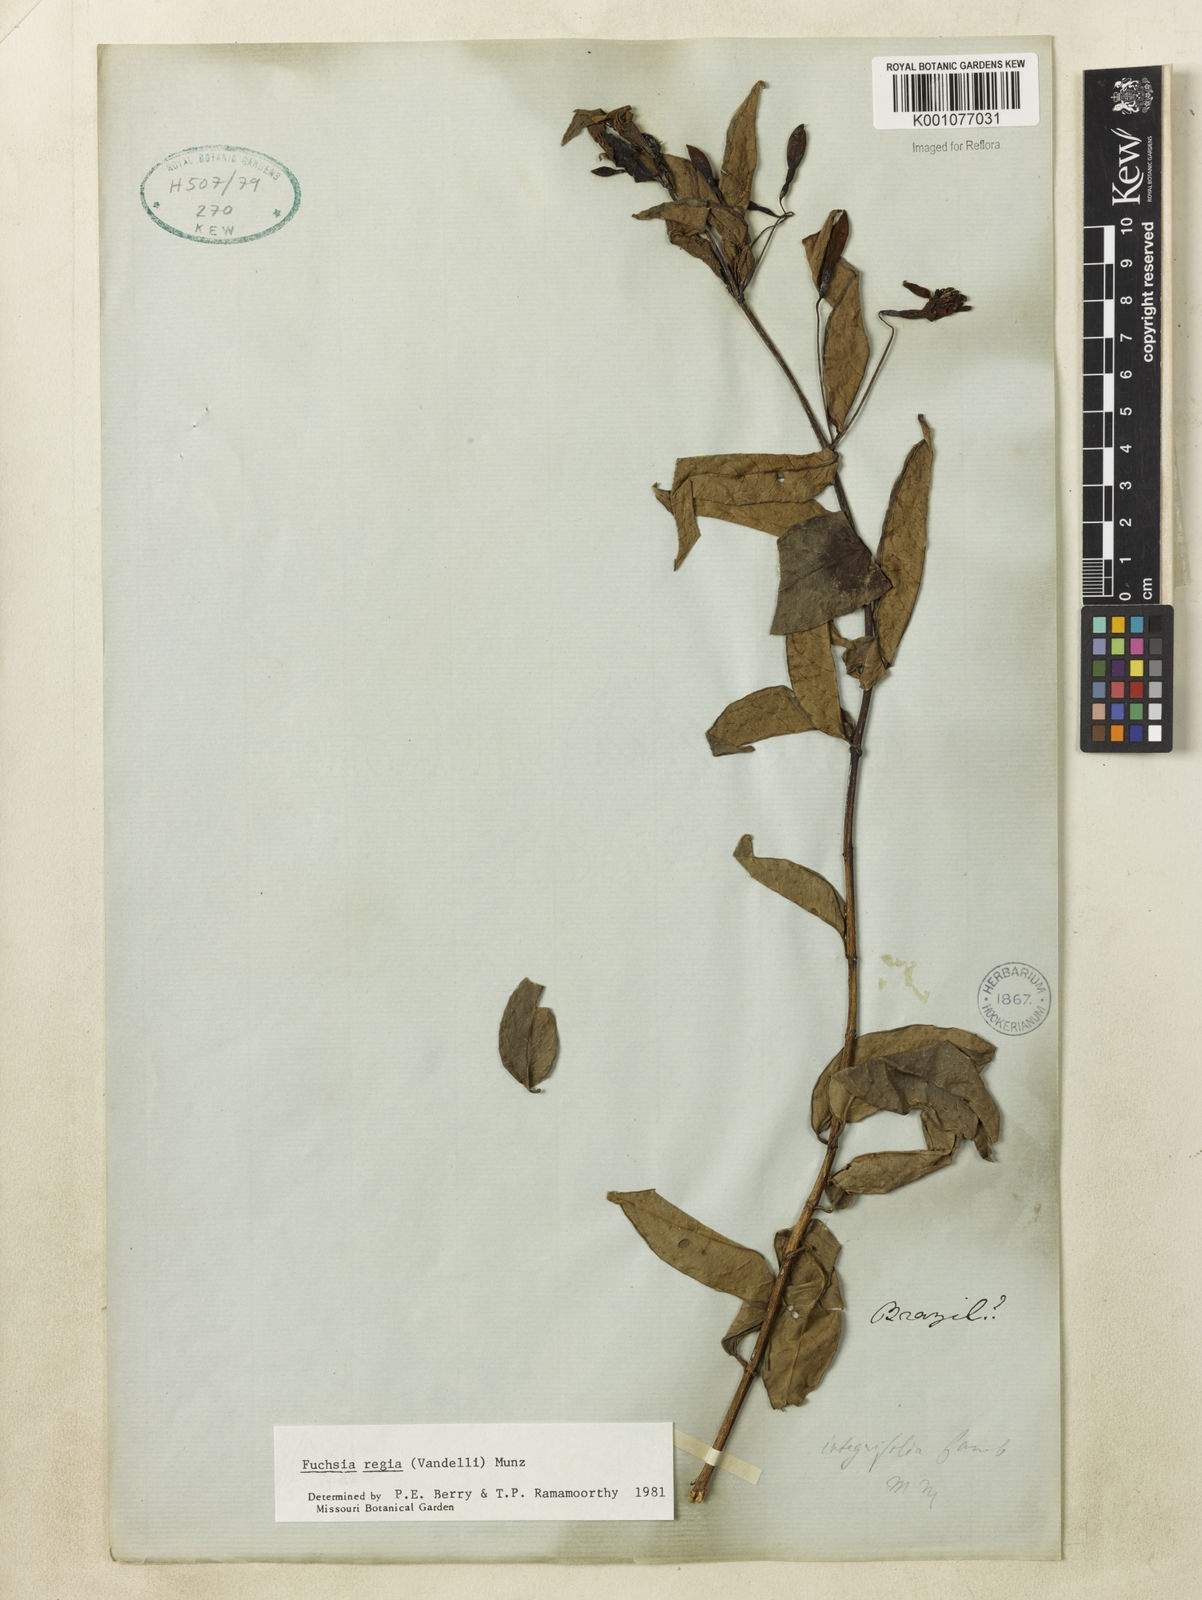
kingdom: Plantae
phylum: Tracheophyta
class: Magnoliopsida
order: Myrtales
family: Onagraceae
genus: Fuchsia
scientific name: Fuchsia regia
